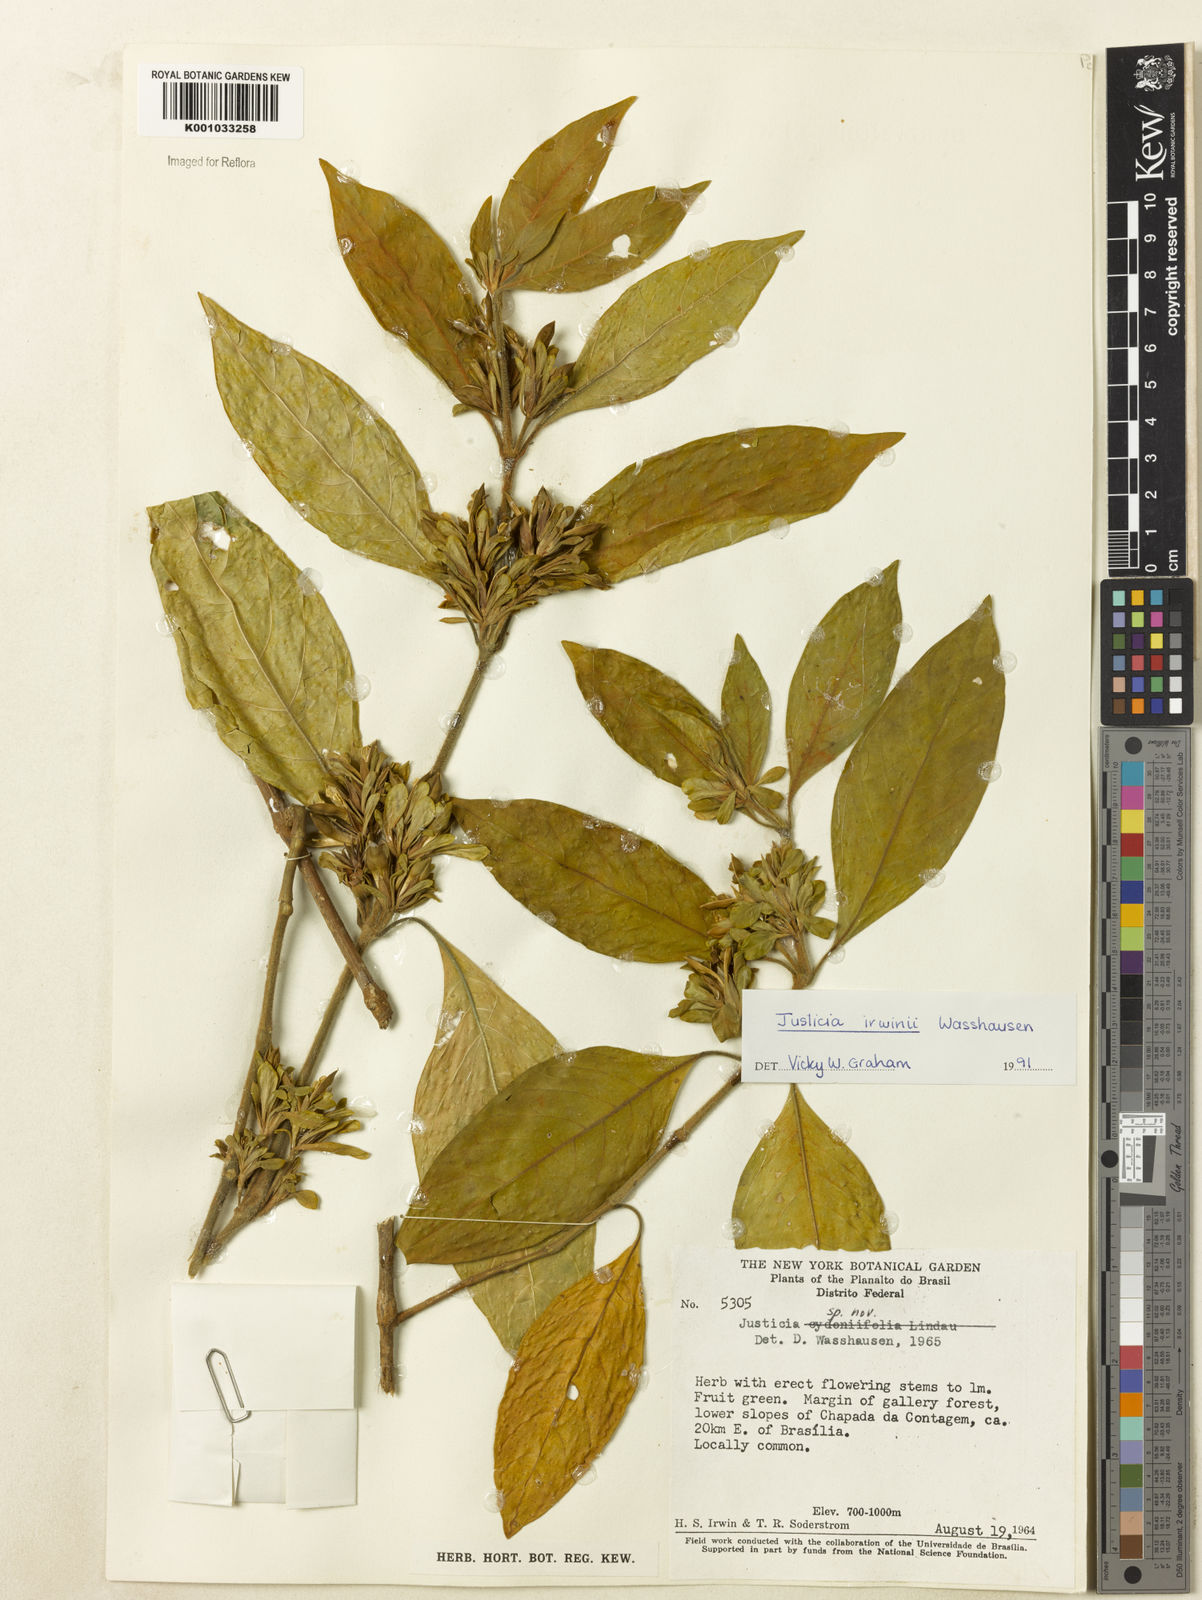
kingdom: Plantae
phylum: Tracheophyta
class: Magnoliopsida
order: Lamiales
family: Acanthaceae
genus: Justicia
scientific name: Justicia irwinii
